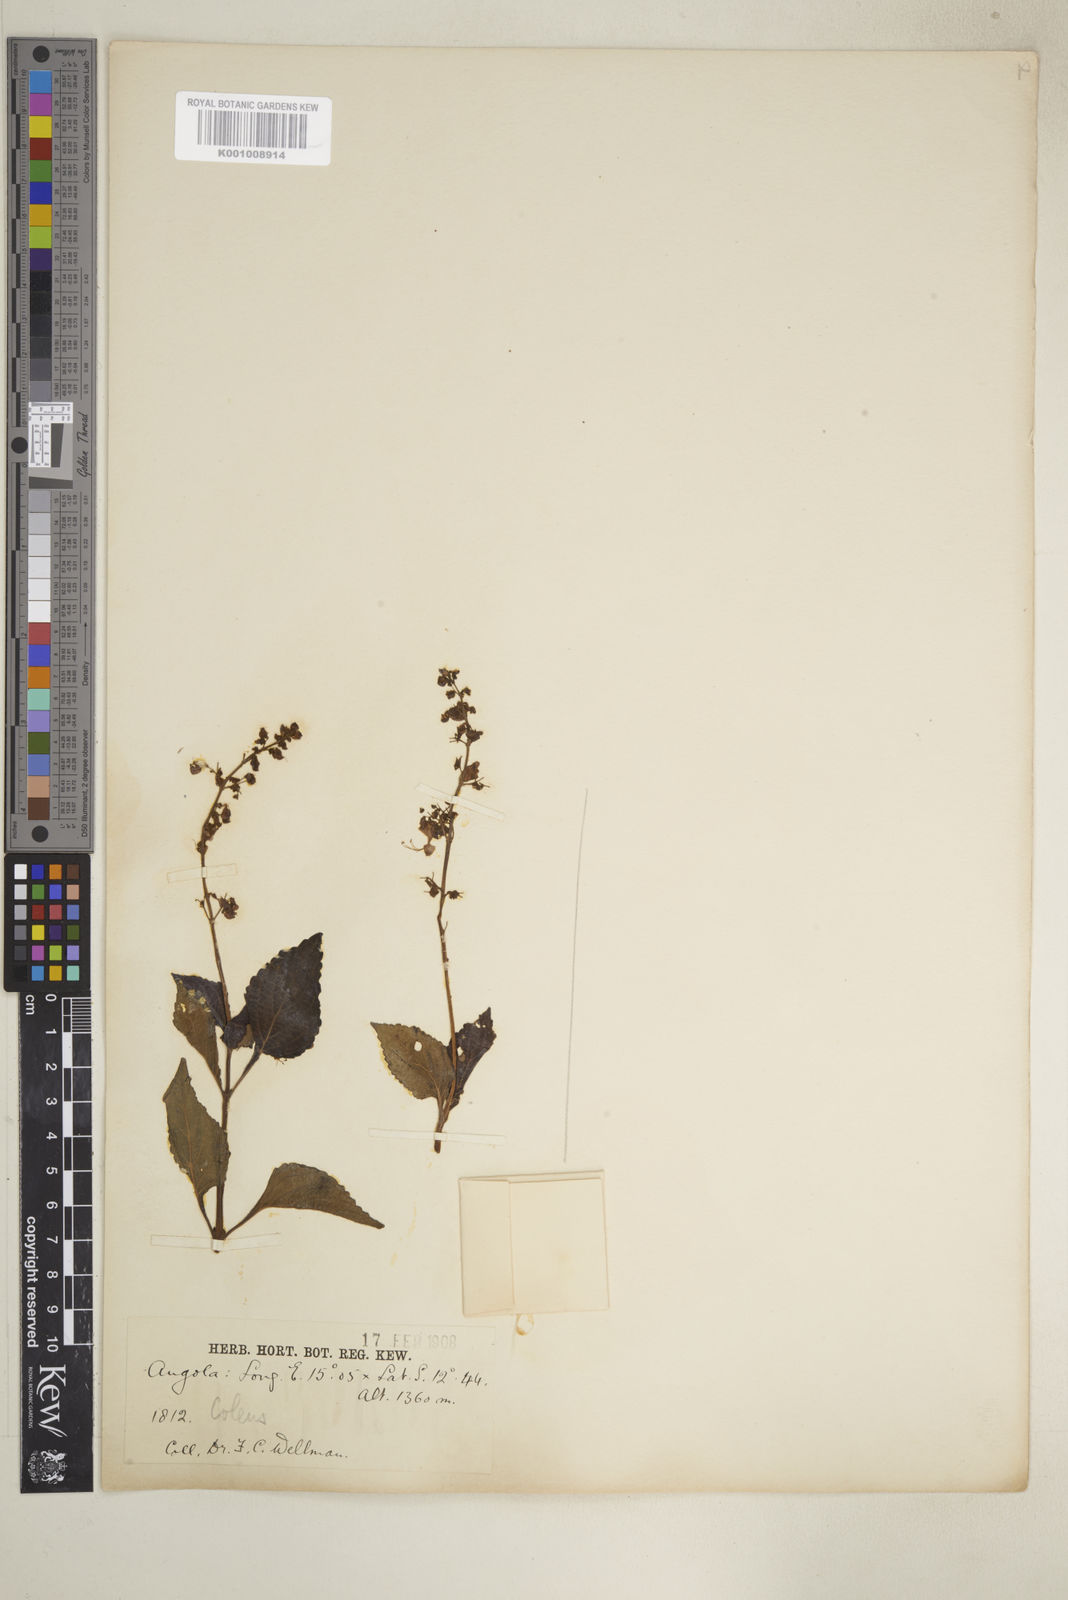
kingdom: Plantae
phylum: Tracheophyta
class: Magnoliopsida
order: Lamiales
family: Lamiaceae
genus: Coleus
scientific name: Coleus tenuicaulis
